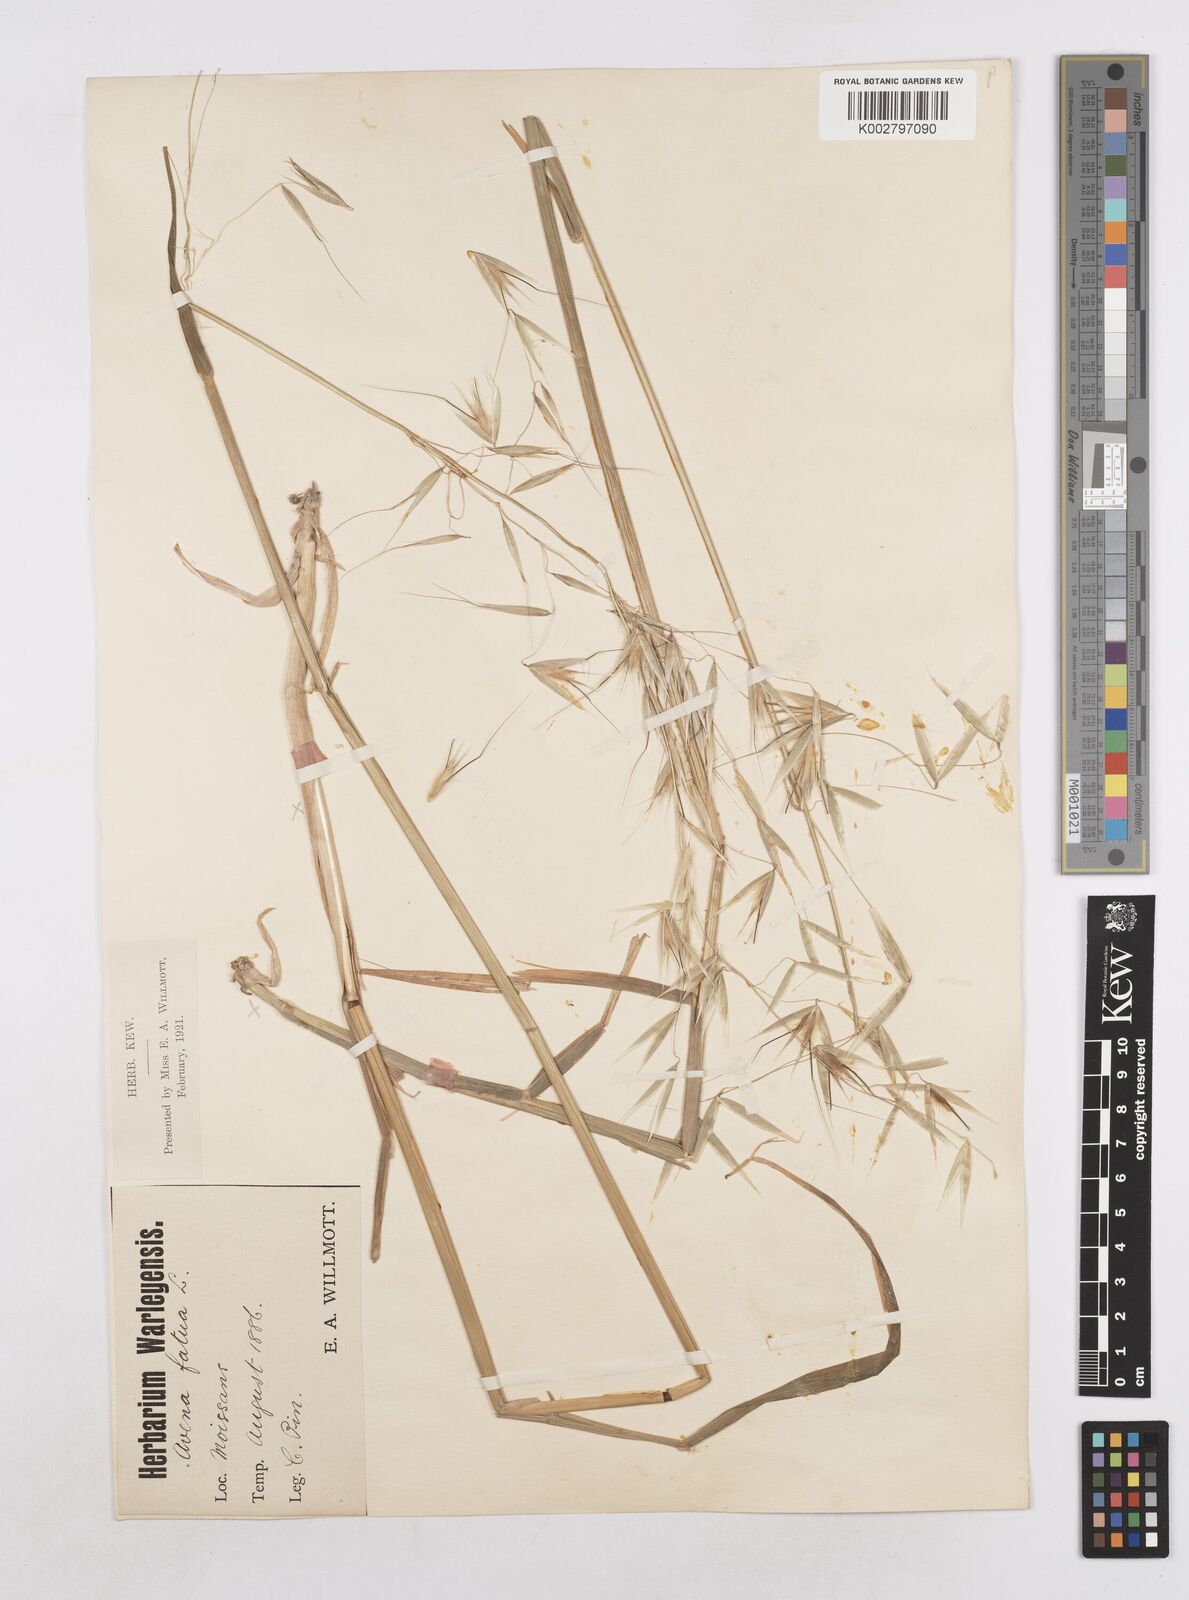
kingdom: Plantae
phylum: Tracheophyta
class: Liliopsida
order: Poales
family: Poaceae
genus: Avena
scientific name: Avena
